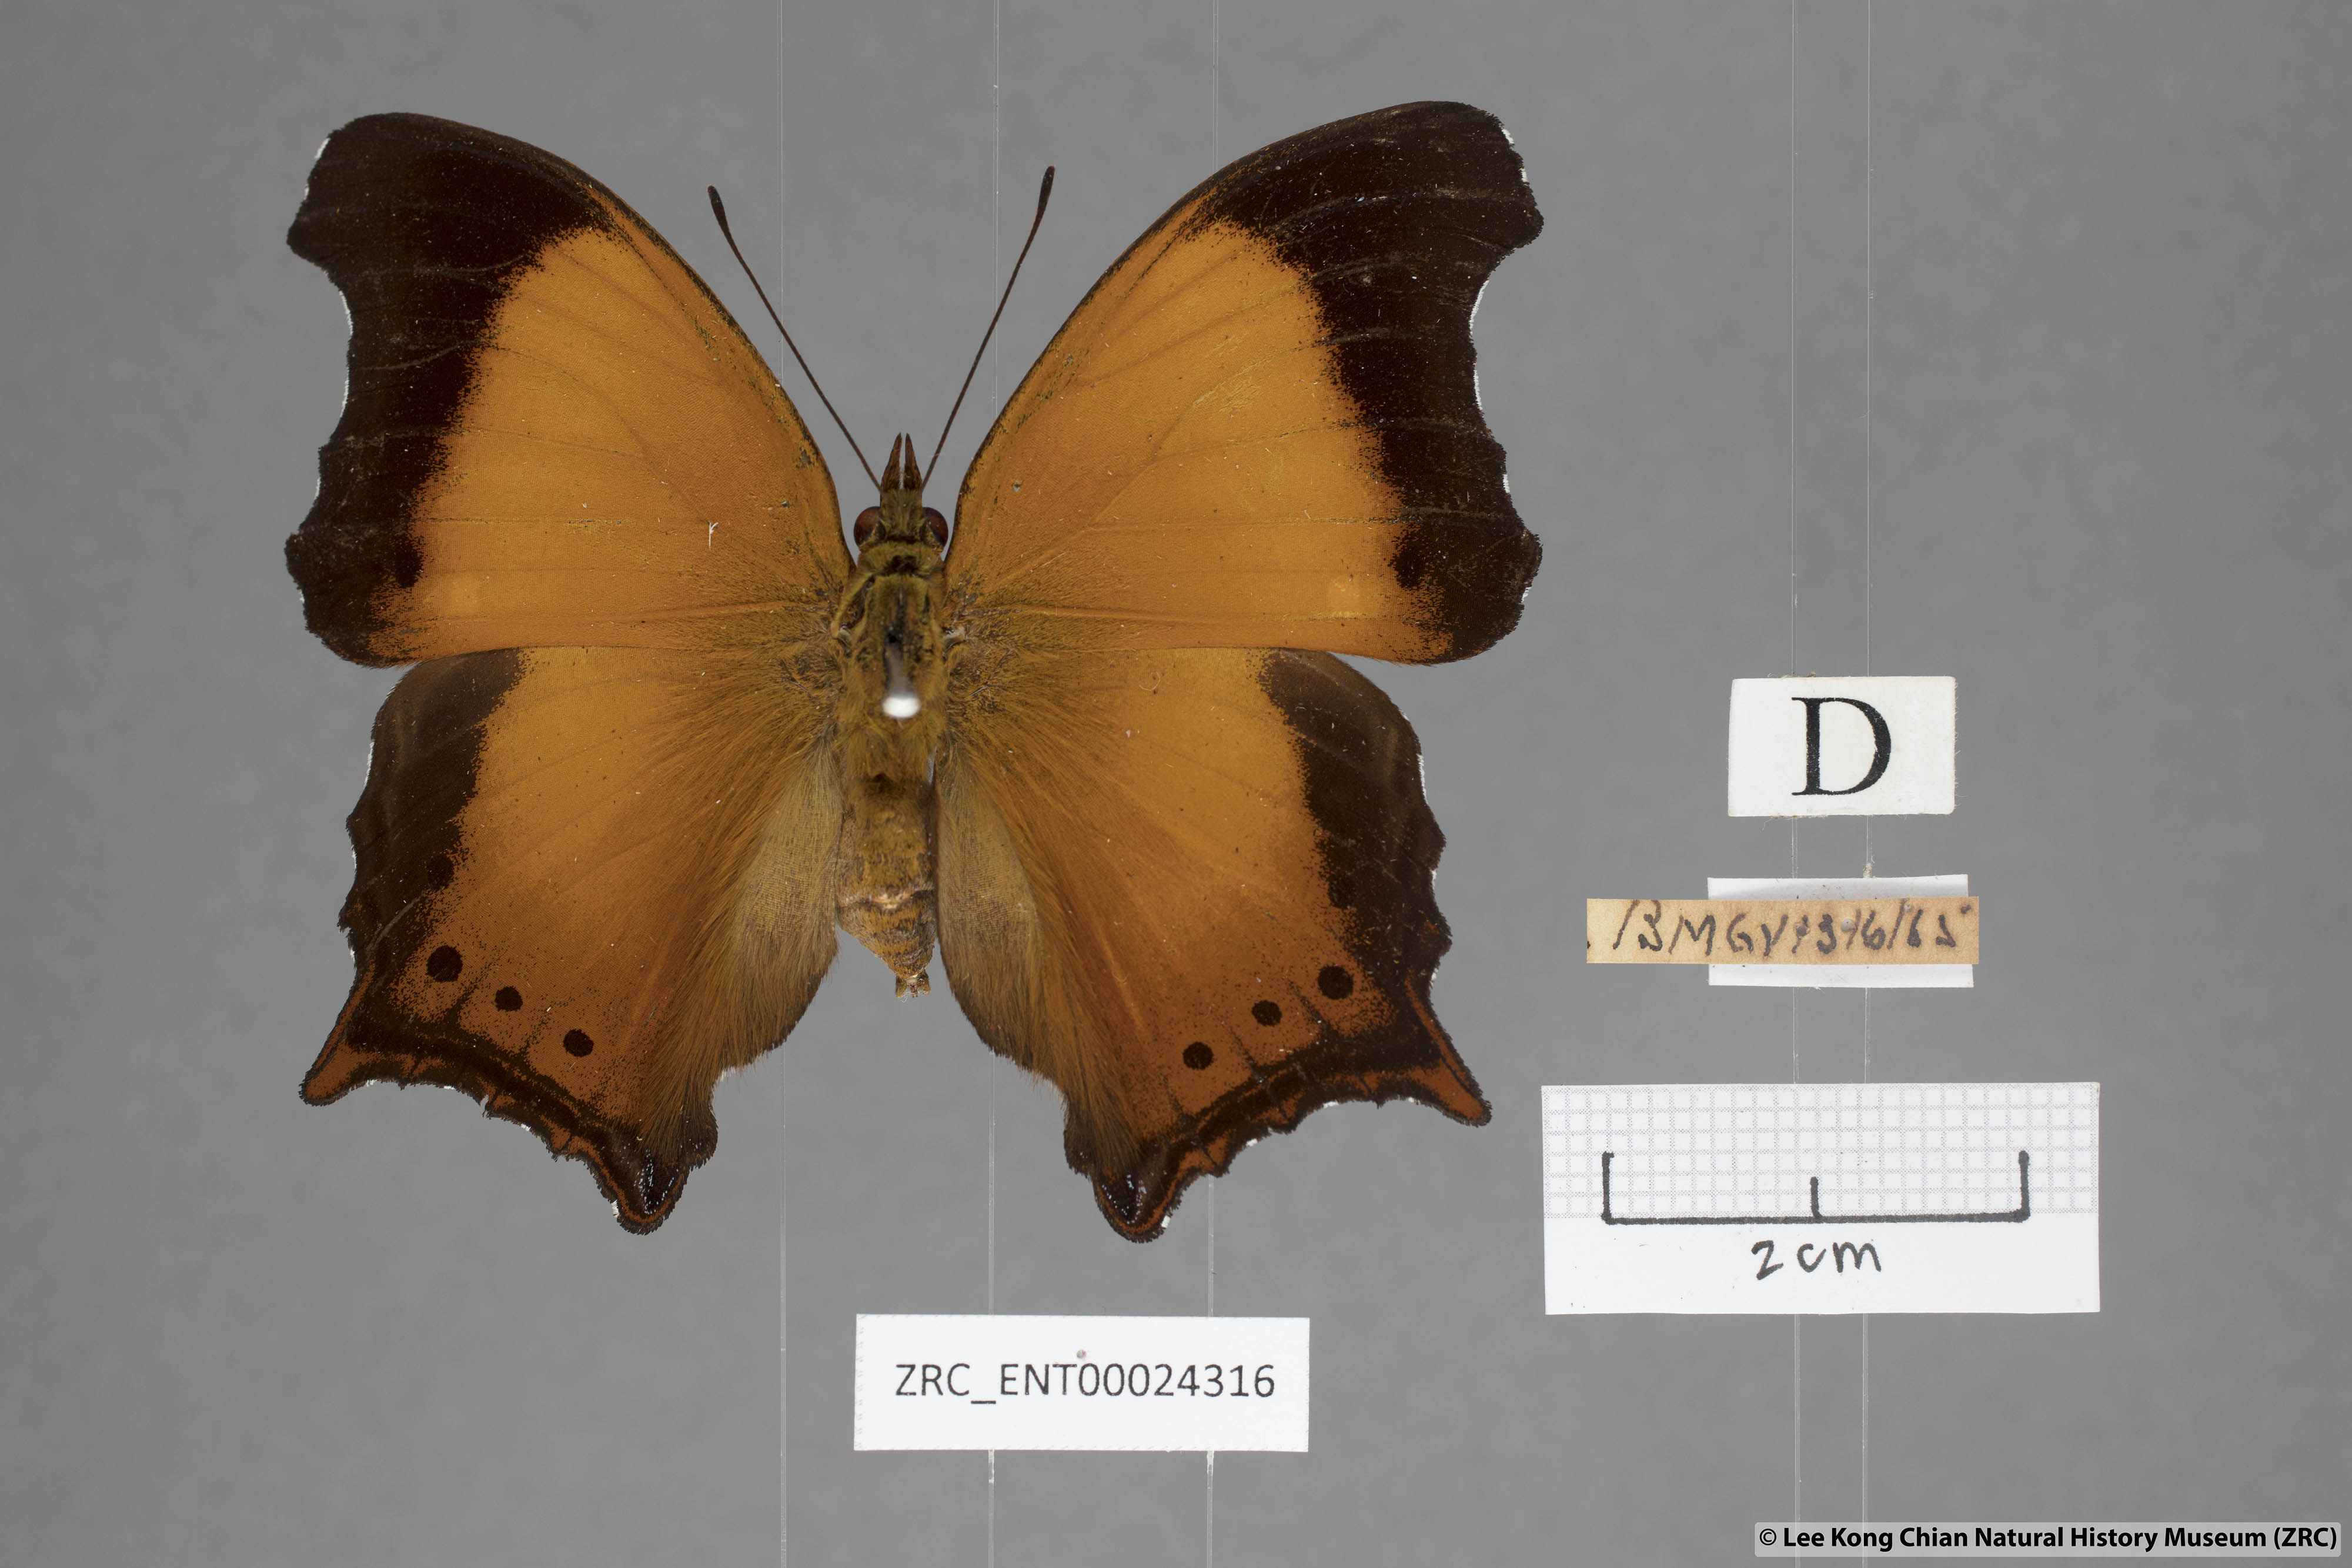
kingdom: Animalia
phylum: Arthropoda
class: Insecta
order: Lepidoptera
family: Nymphalidae
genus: Rhinopalpa
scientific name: Rhinopalpa polynice
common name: Wizard
